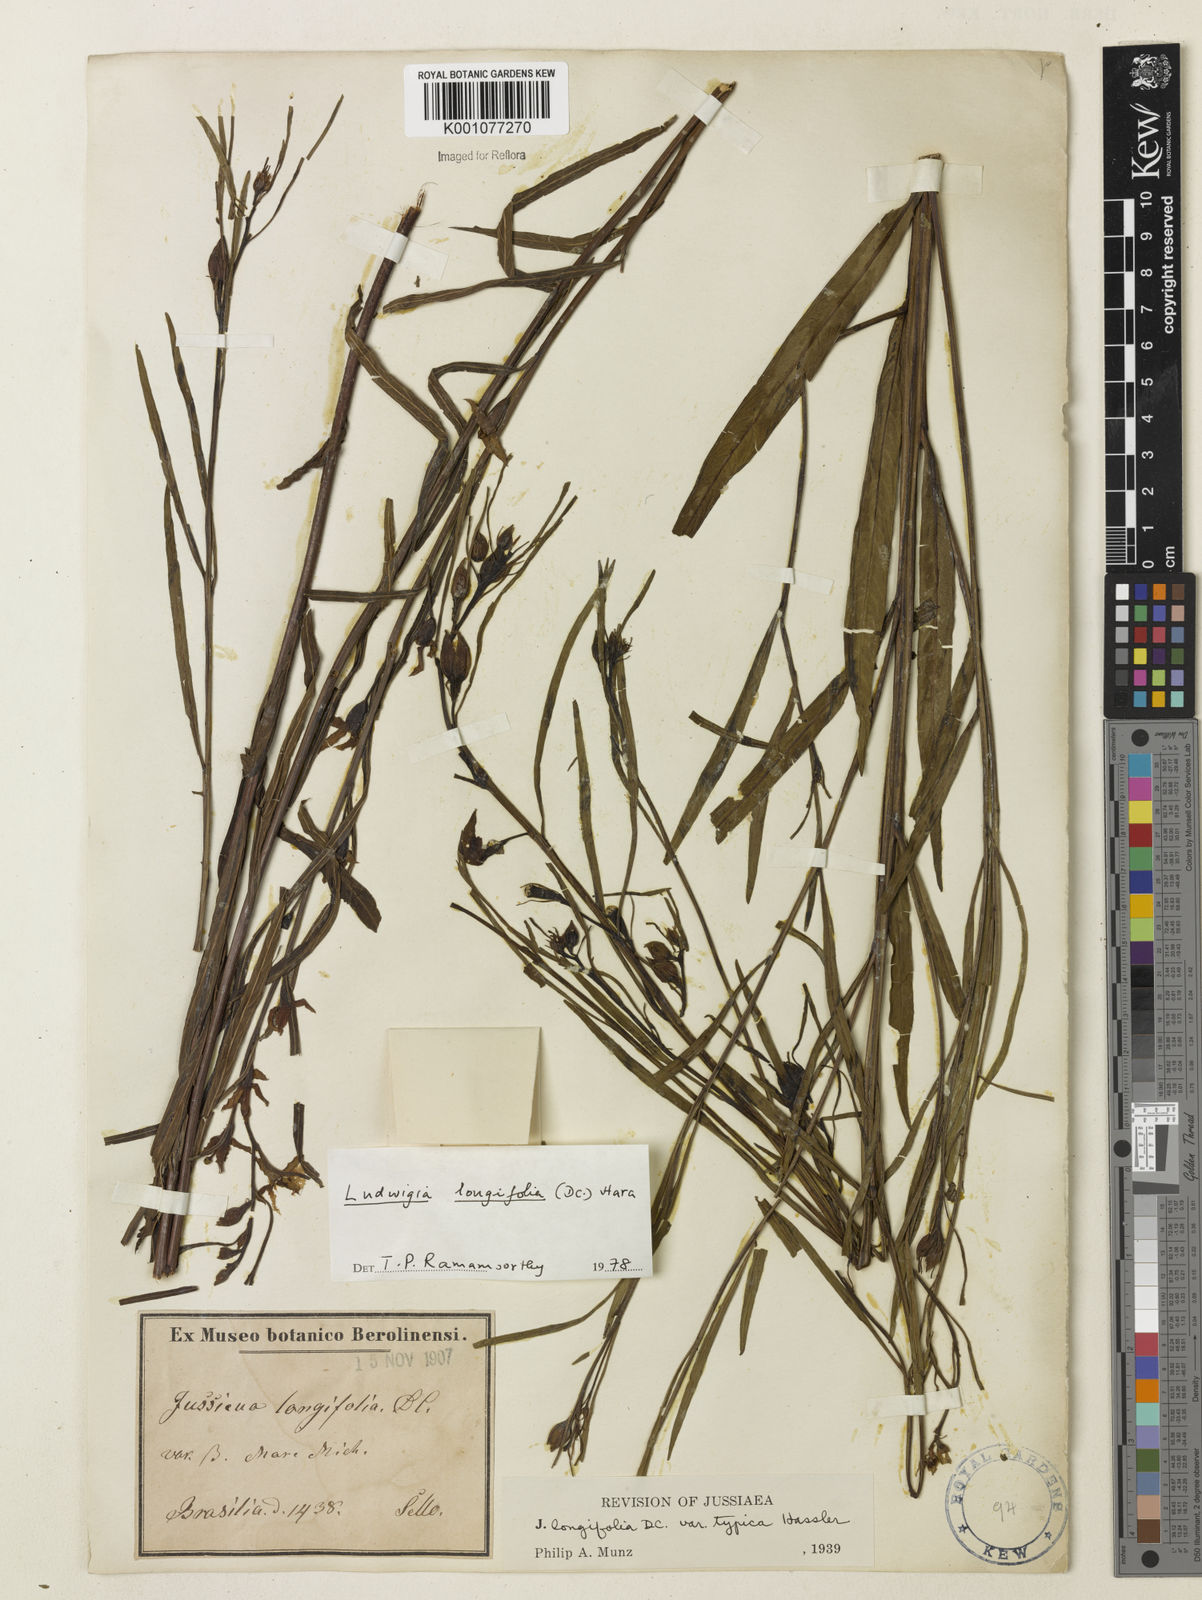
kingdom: Plantae
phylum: Tracheophyta
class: Magnoliopsida
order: Myrtales
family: Onagraceae
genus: Ludwigia
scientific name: Ludwigia longifolia
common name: Longleaf primrose-willow
